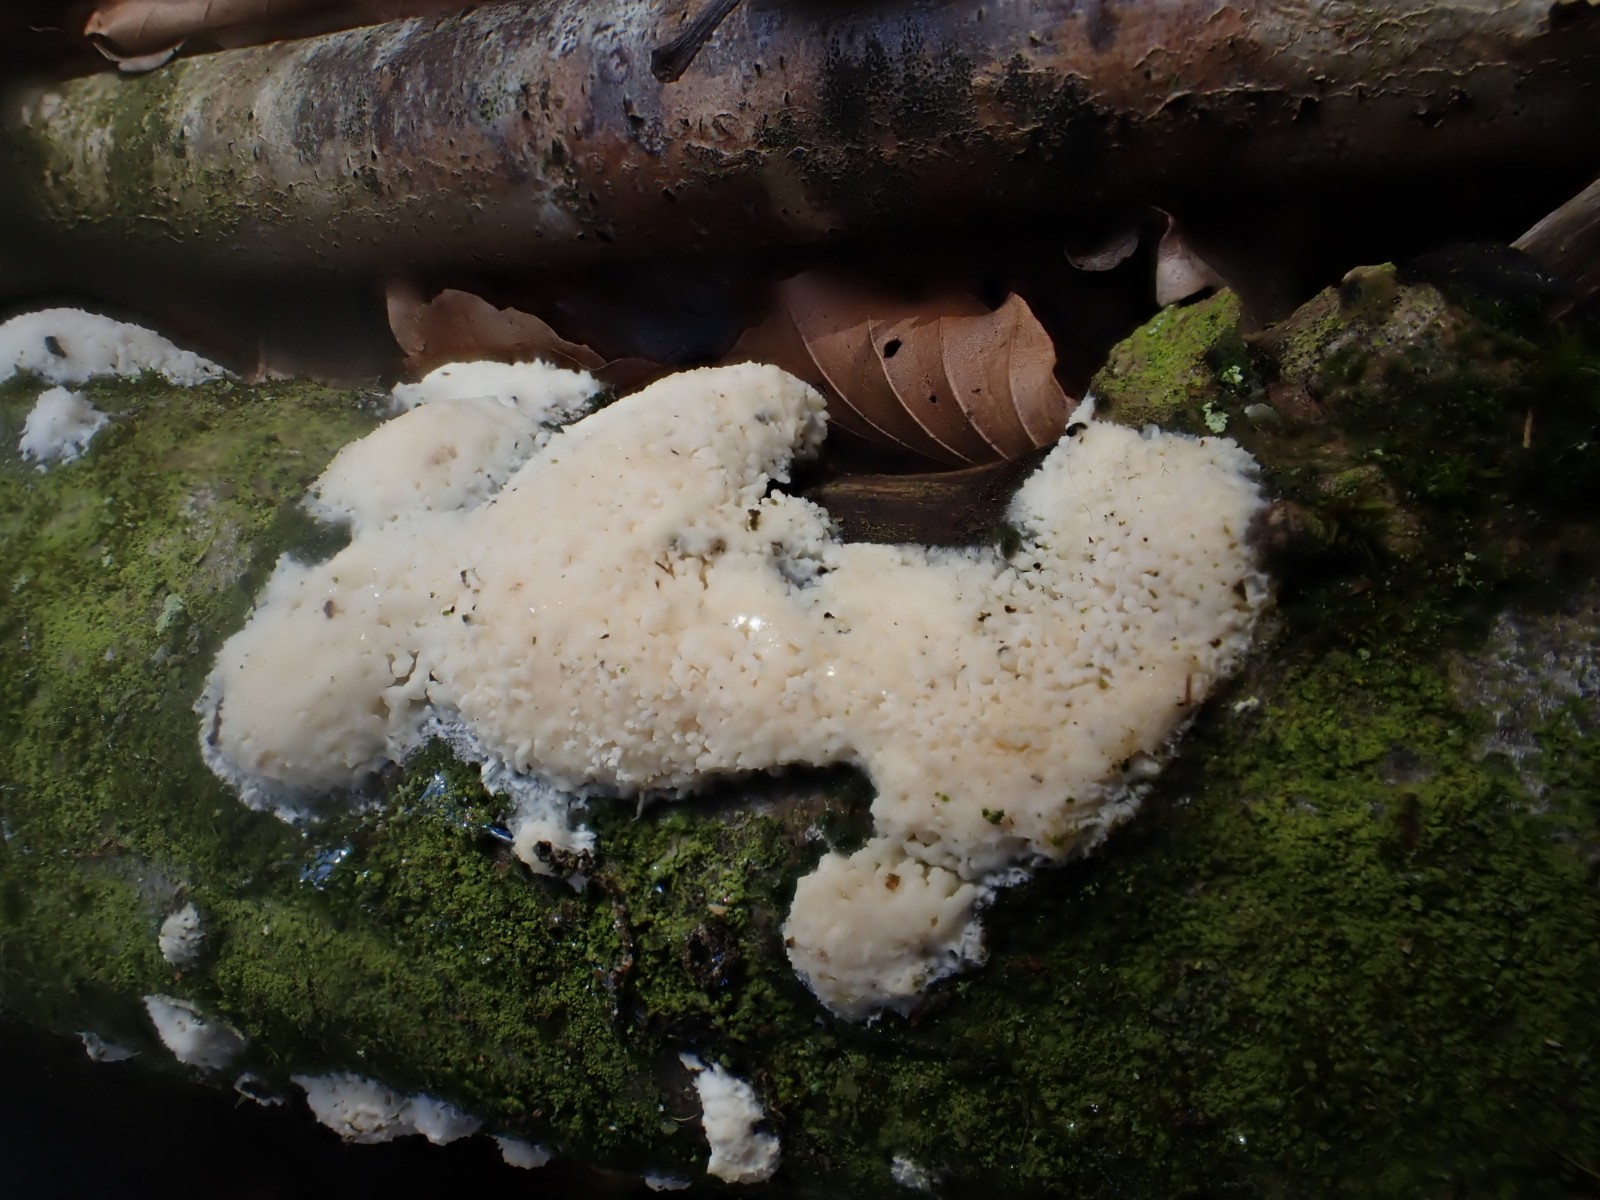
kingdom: Fungi
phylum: Basidiomycota
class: Agaricomycetes
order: Corticiales
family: Corticiaceae
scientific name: Corticiaceae
